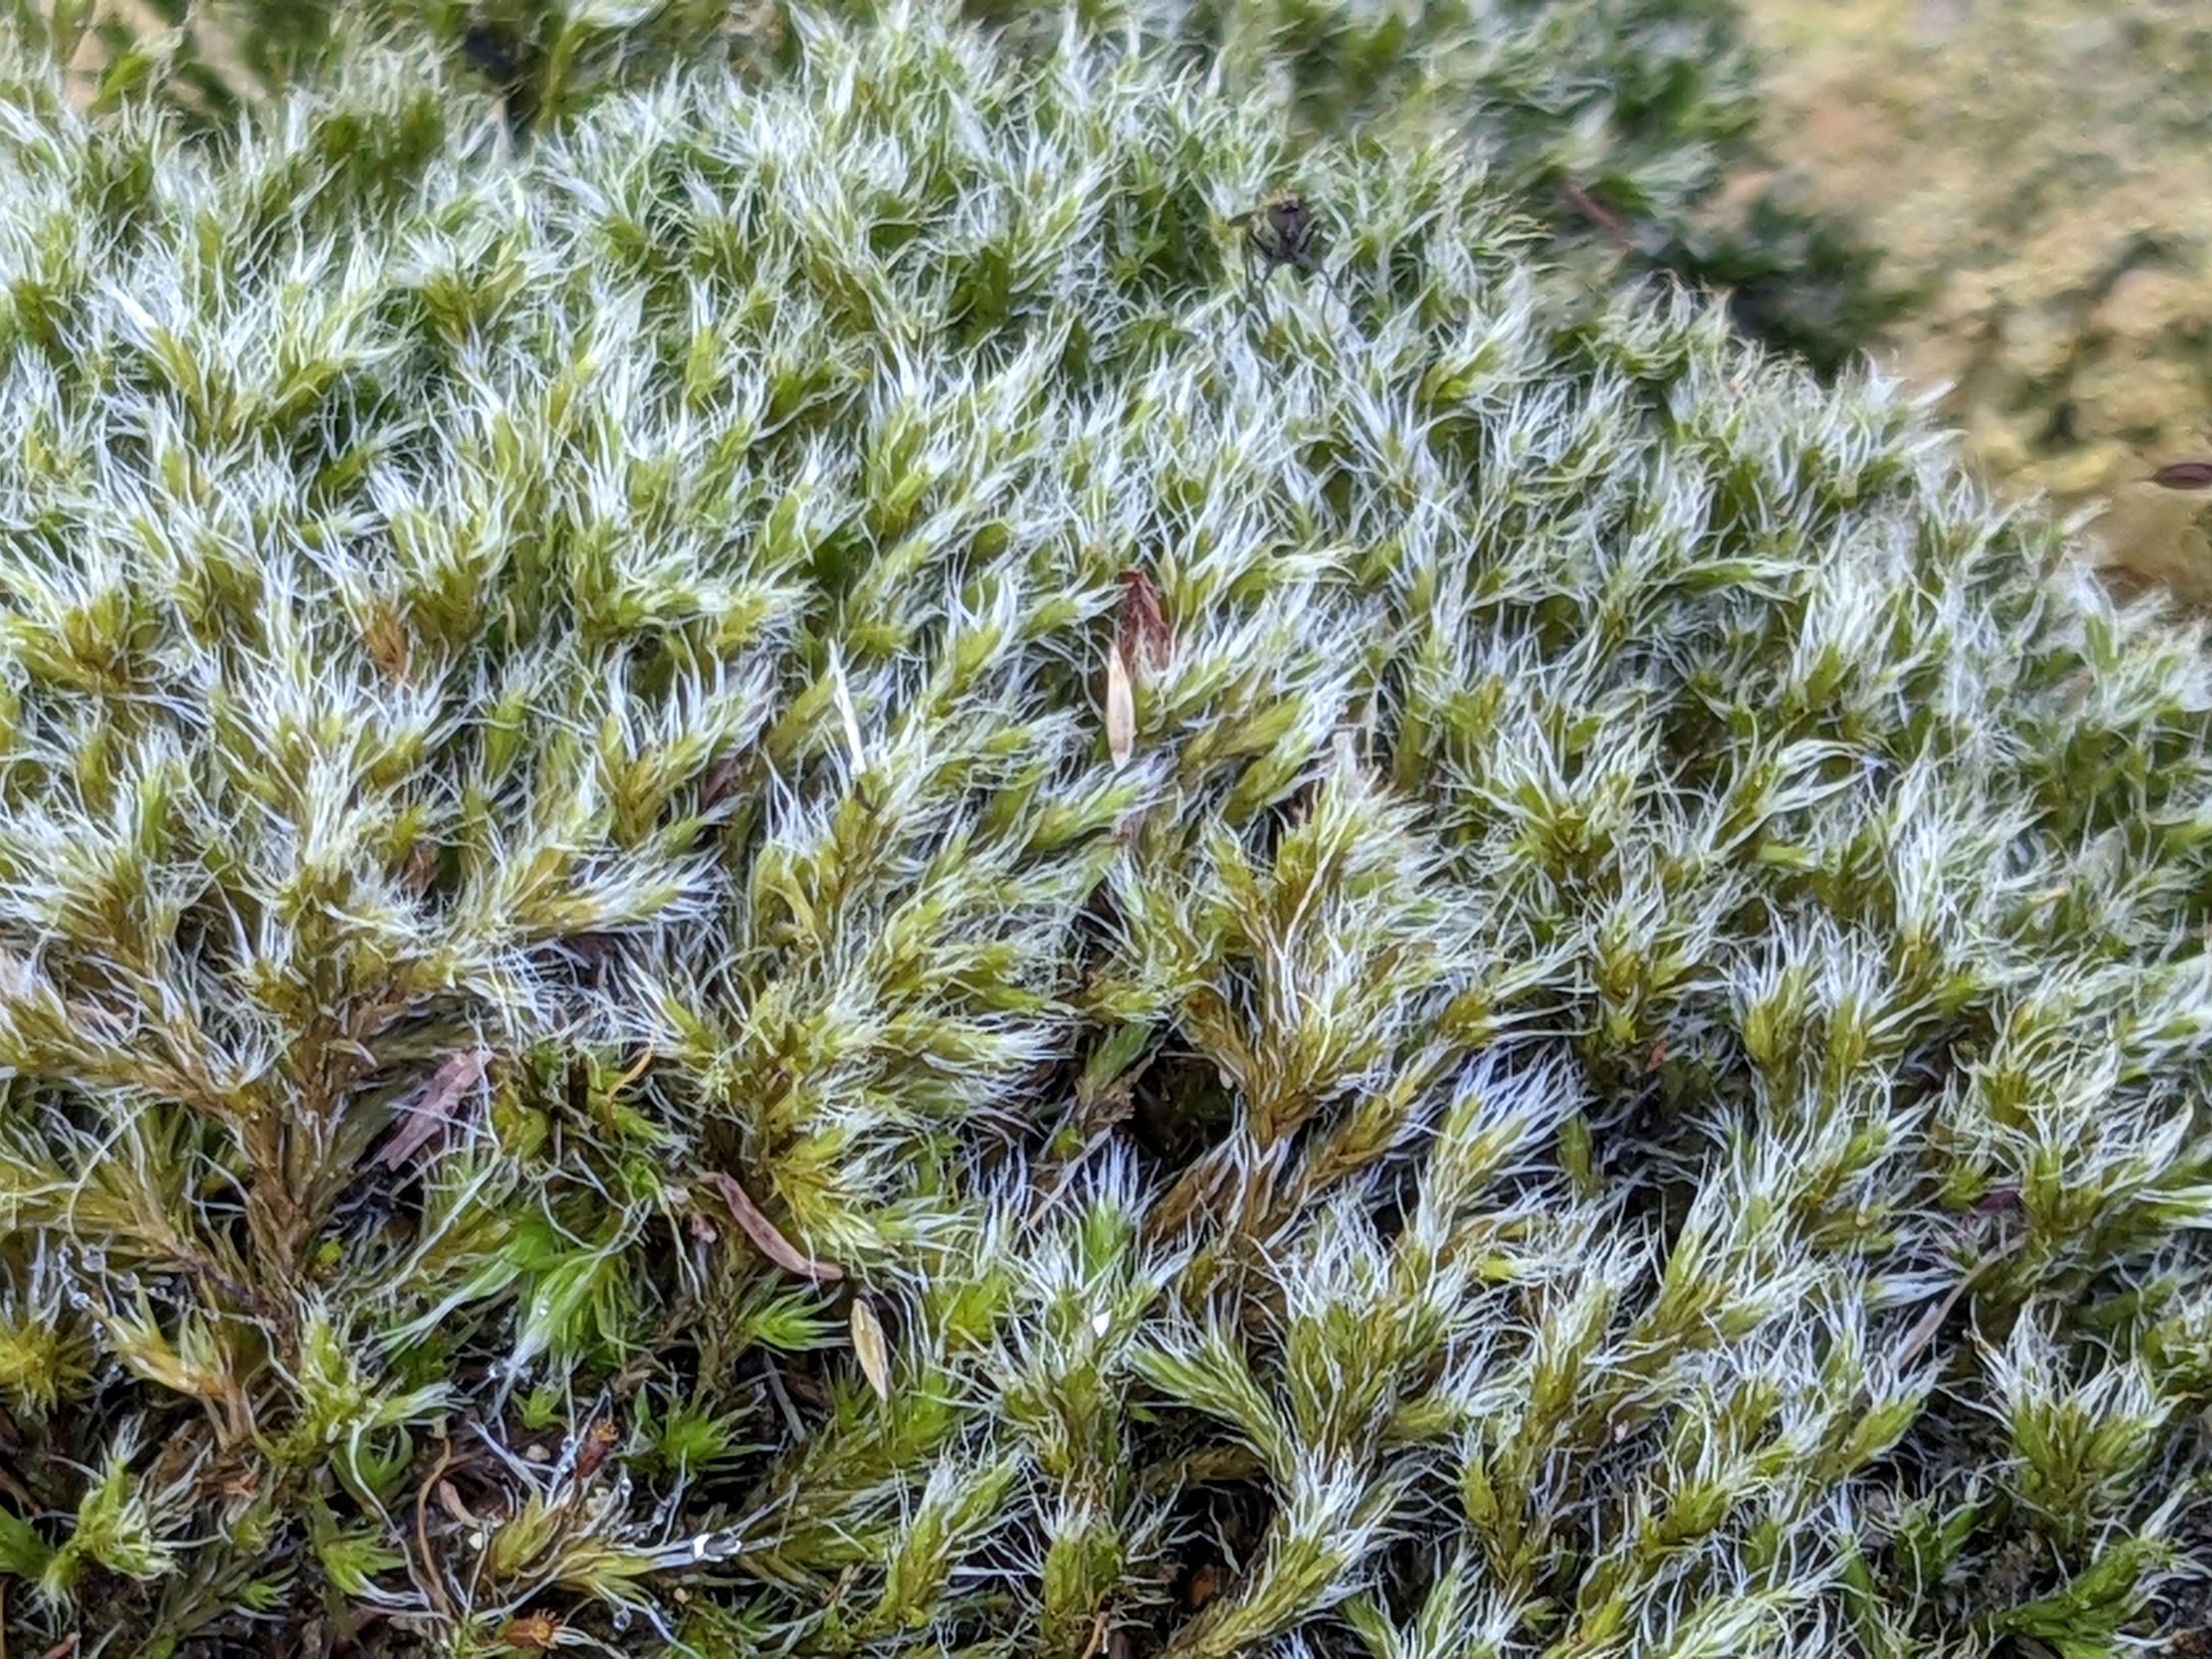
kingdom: Plantae
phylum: Bryophyta
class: Bryopsida
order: Grimmiales
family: Grimmiaceae
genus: Bucklandiella
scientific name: Bucklandiella heterosticha
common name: Sten-børstemos
